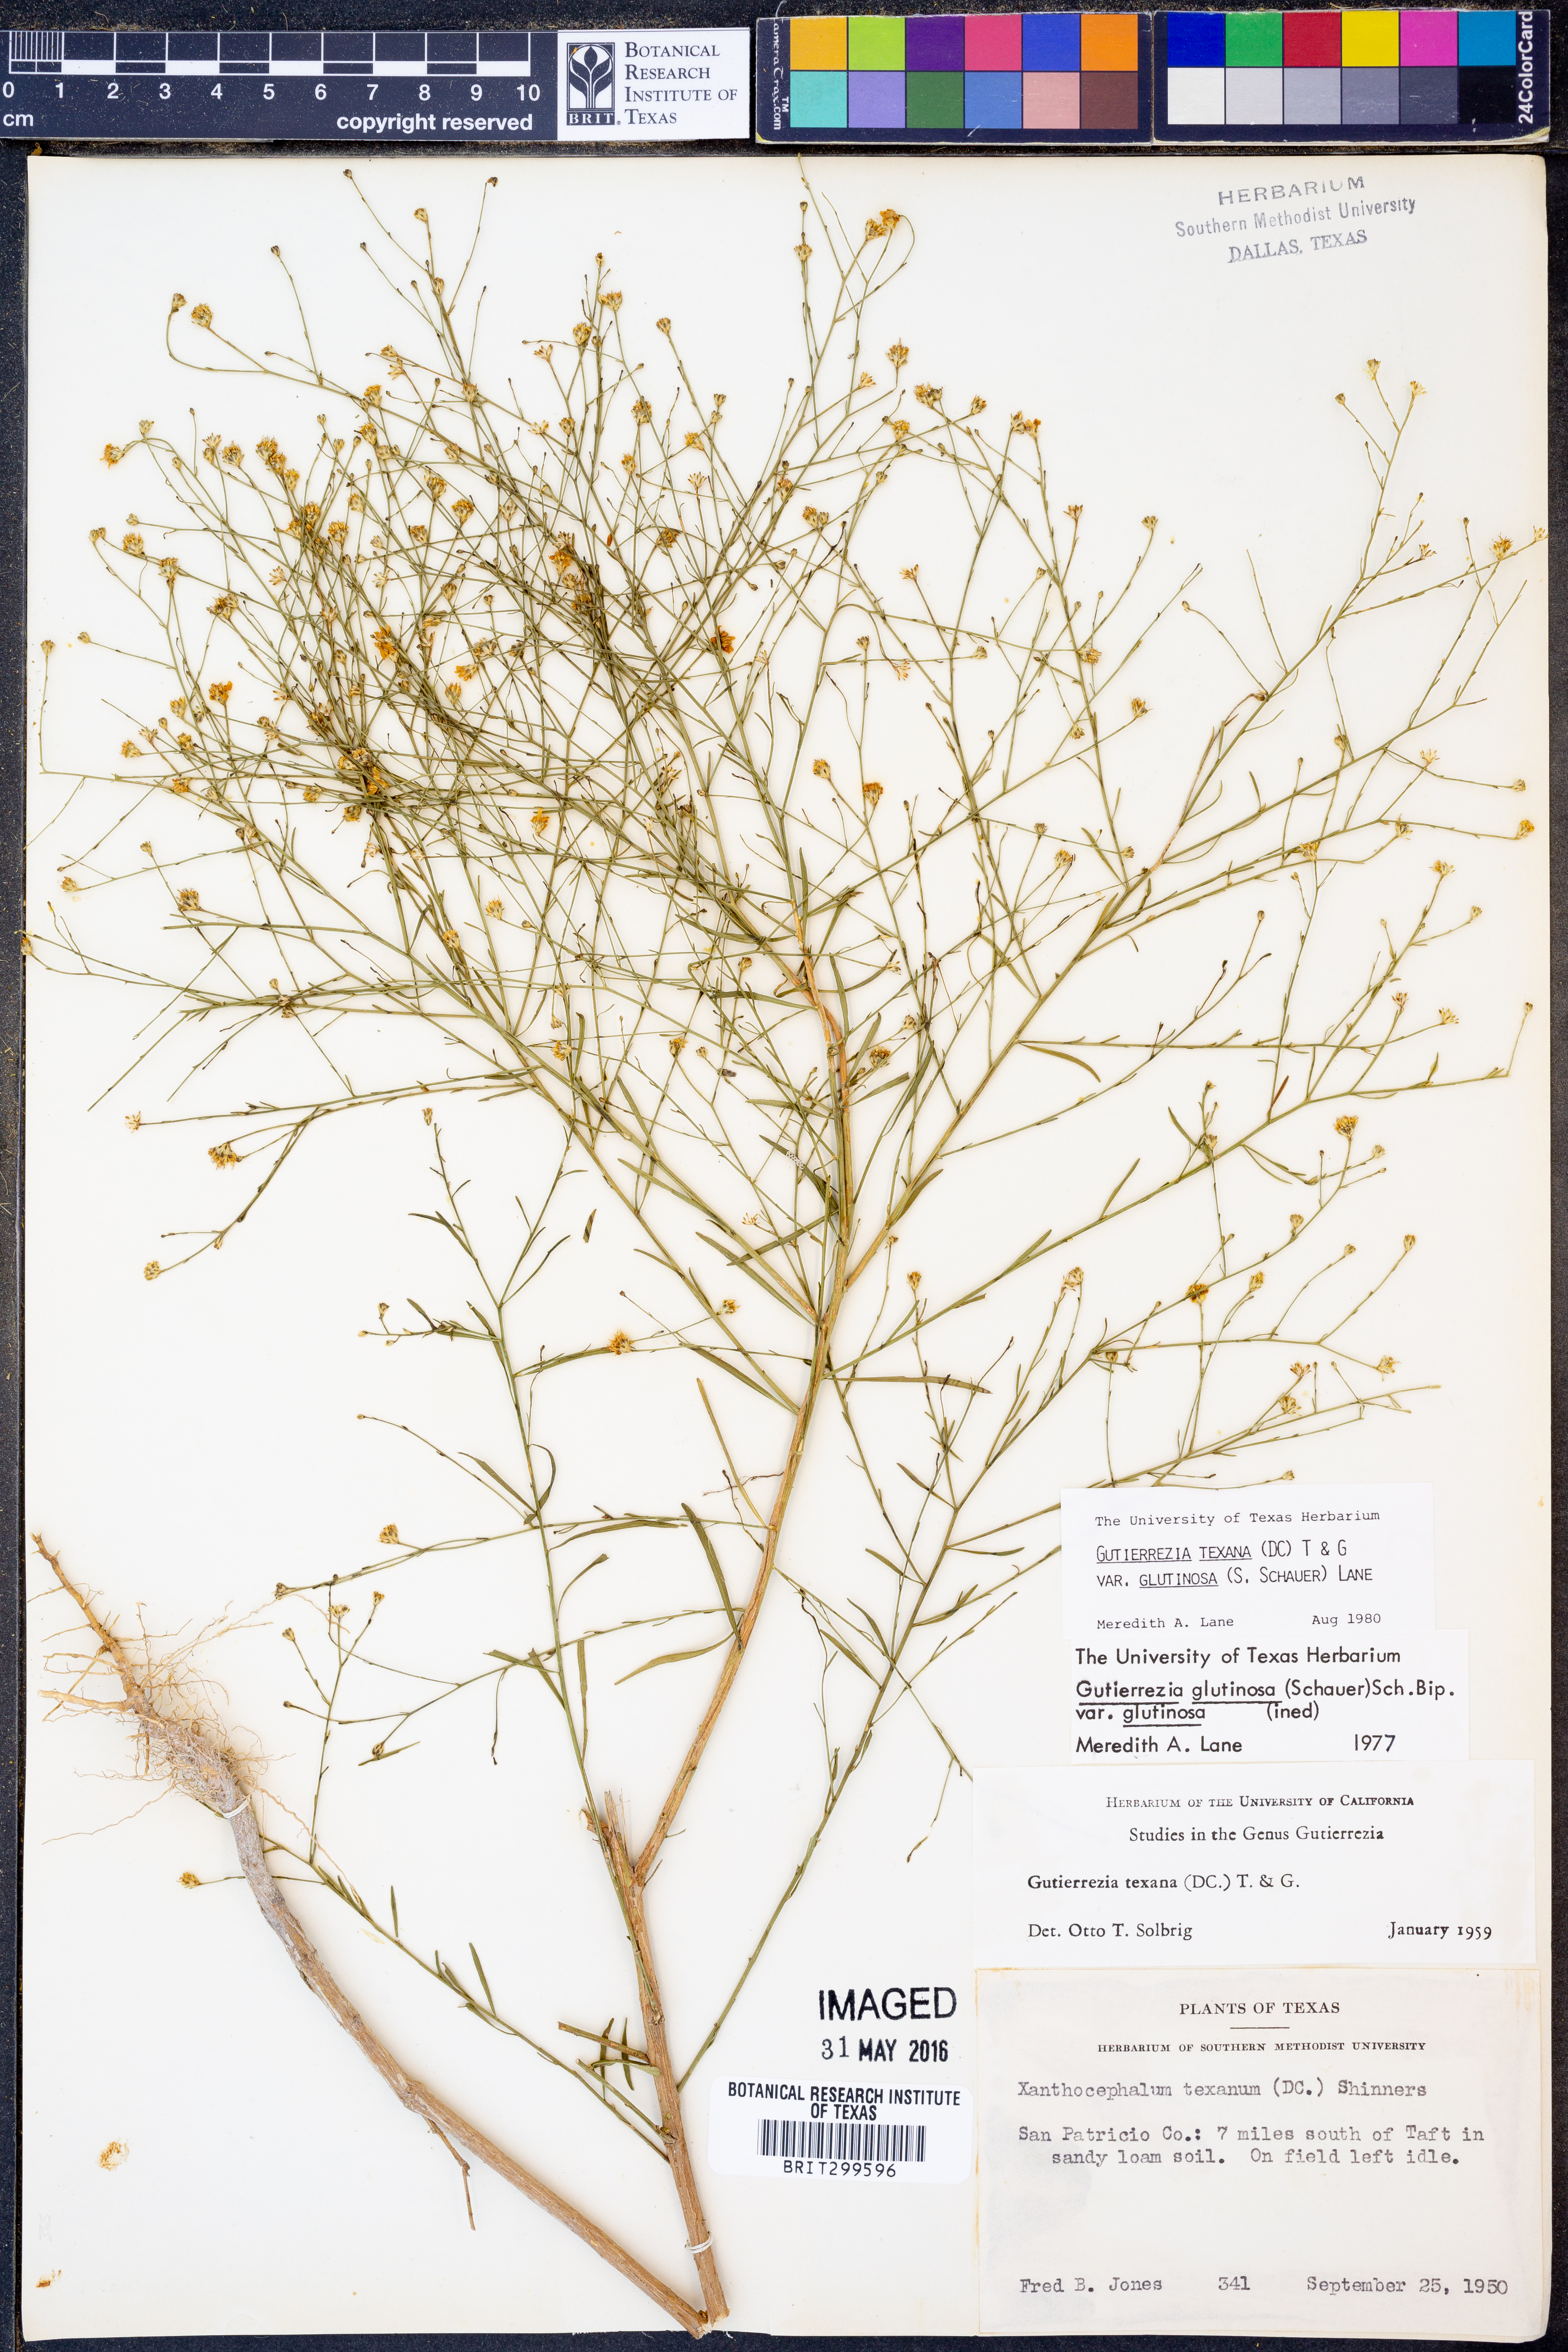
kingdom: Plantae
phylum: Tracheophyta
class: Magnoliopsida
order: Asterales
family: Asteraceae
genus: Gutierrezia
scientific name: Gutierrezia texana
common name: Texas snakeweed
